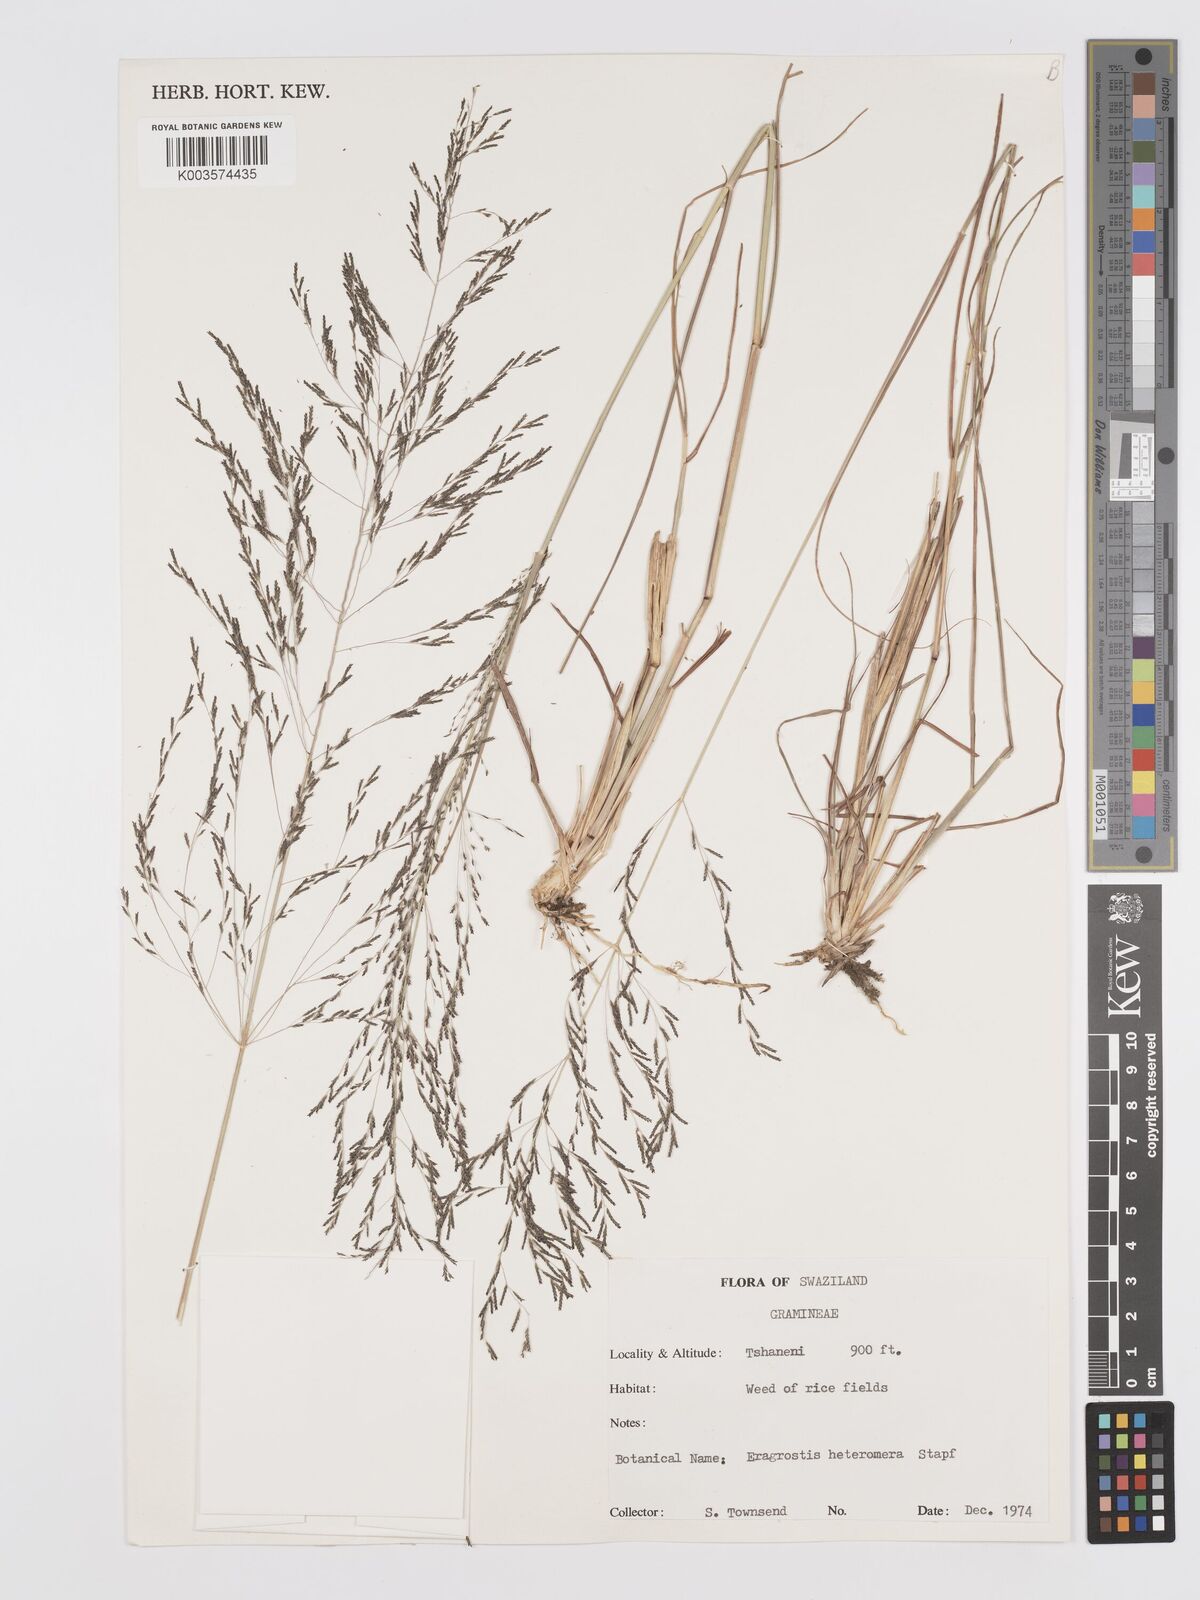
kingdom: Plantae
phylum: Tracheophyta
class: Liliopsida
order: Poales
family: Poaceae
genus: Eragrostis
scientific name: Eragrostis heteromera
